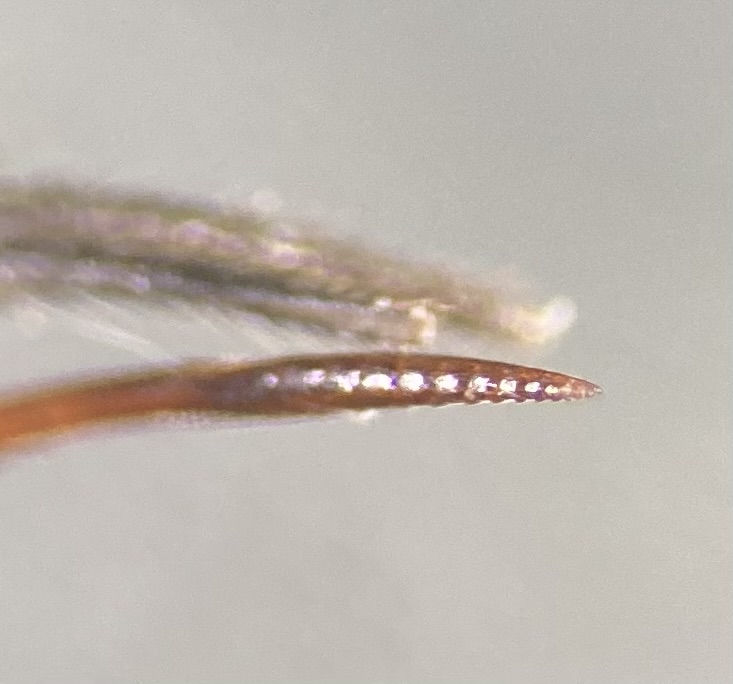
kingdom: Animalia
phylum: Arthropoda
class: Insecta
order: Hymenoptera
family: Ichneumonidae
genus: Ephialtes
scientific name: Ephialtes manifestator
